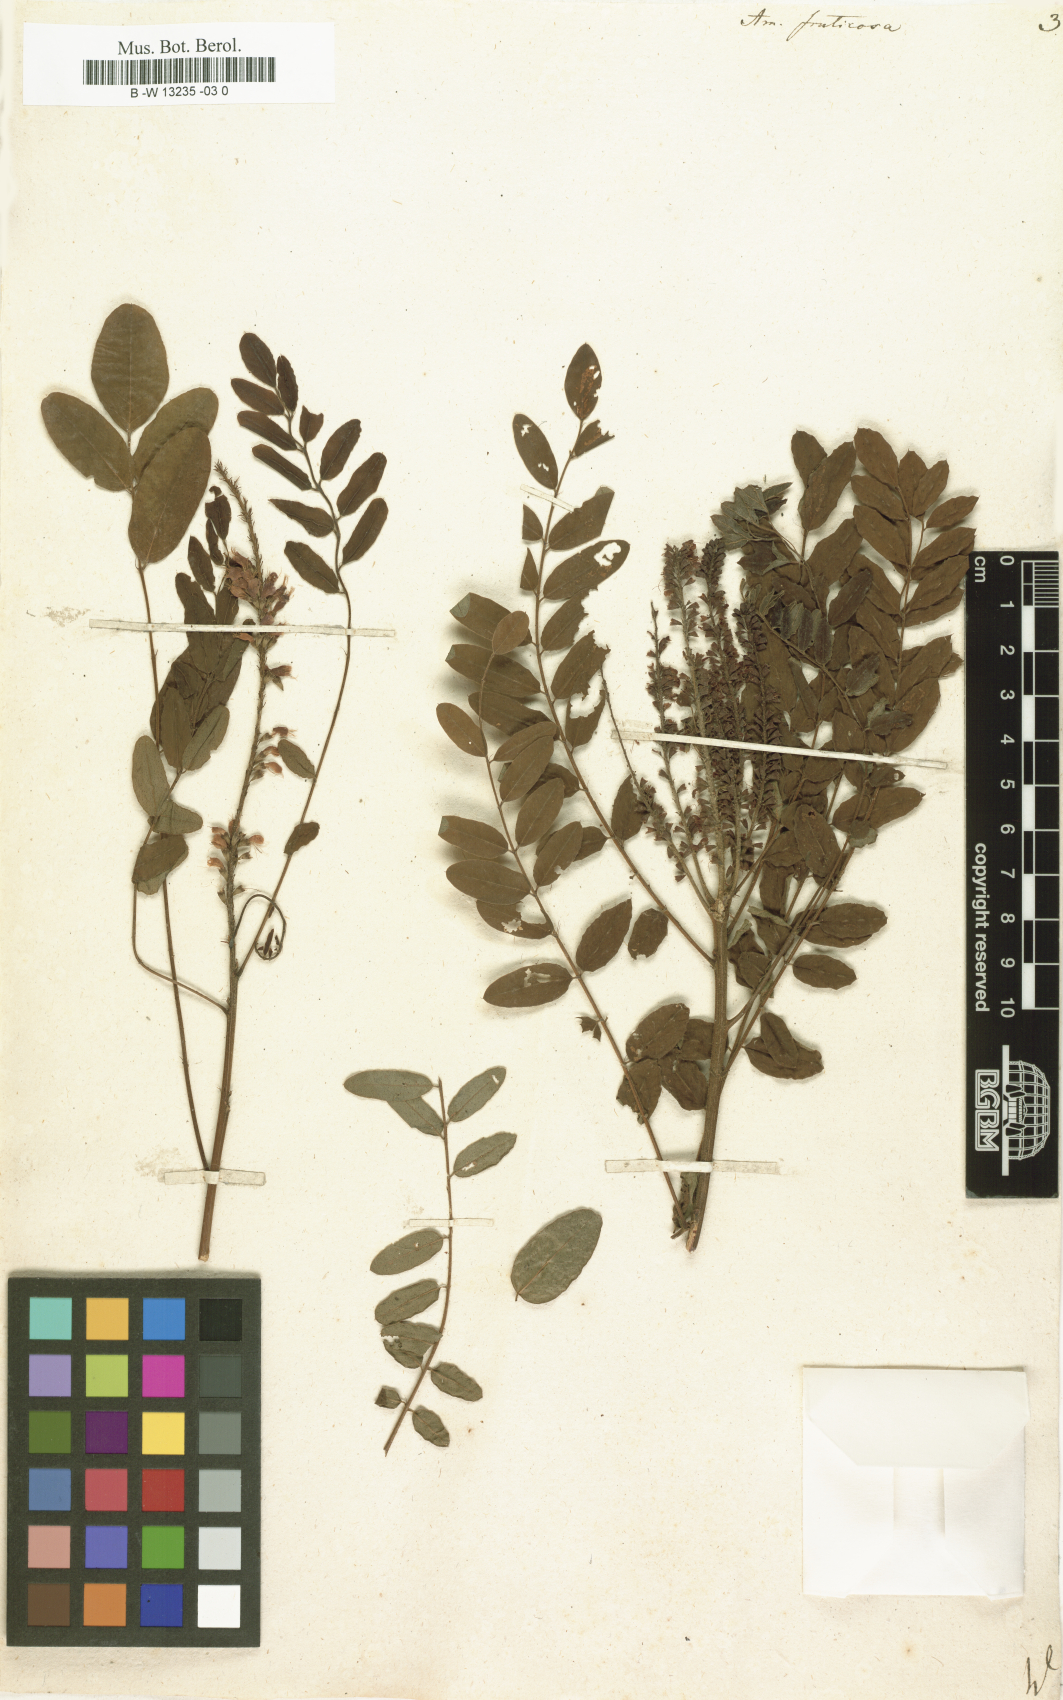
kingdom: Plantae
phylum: Tracheophyta
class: Magnoliopsida
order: Fabales
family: Fabaceae
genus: Amorpha
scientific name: Amorpha fruticosa
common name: False indigo
